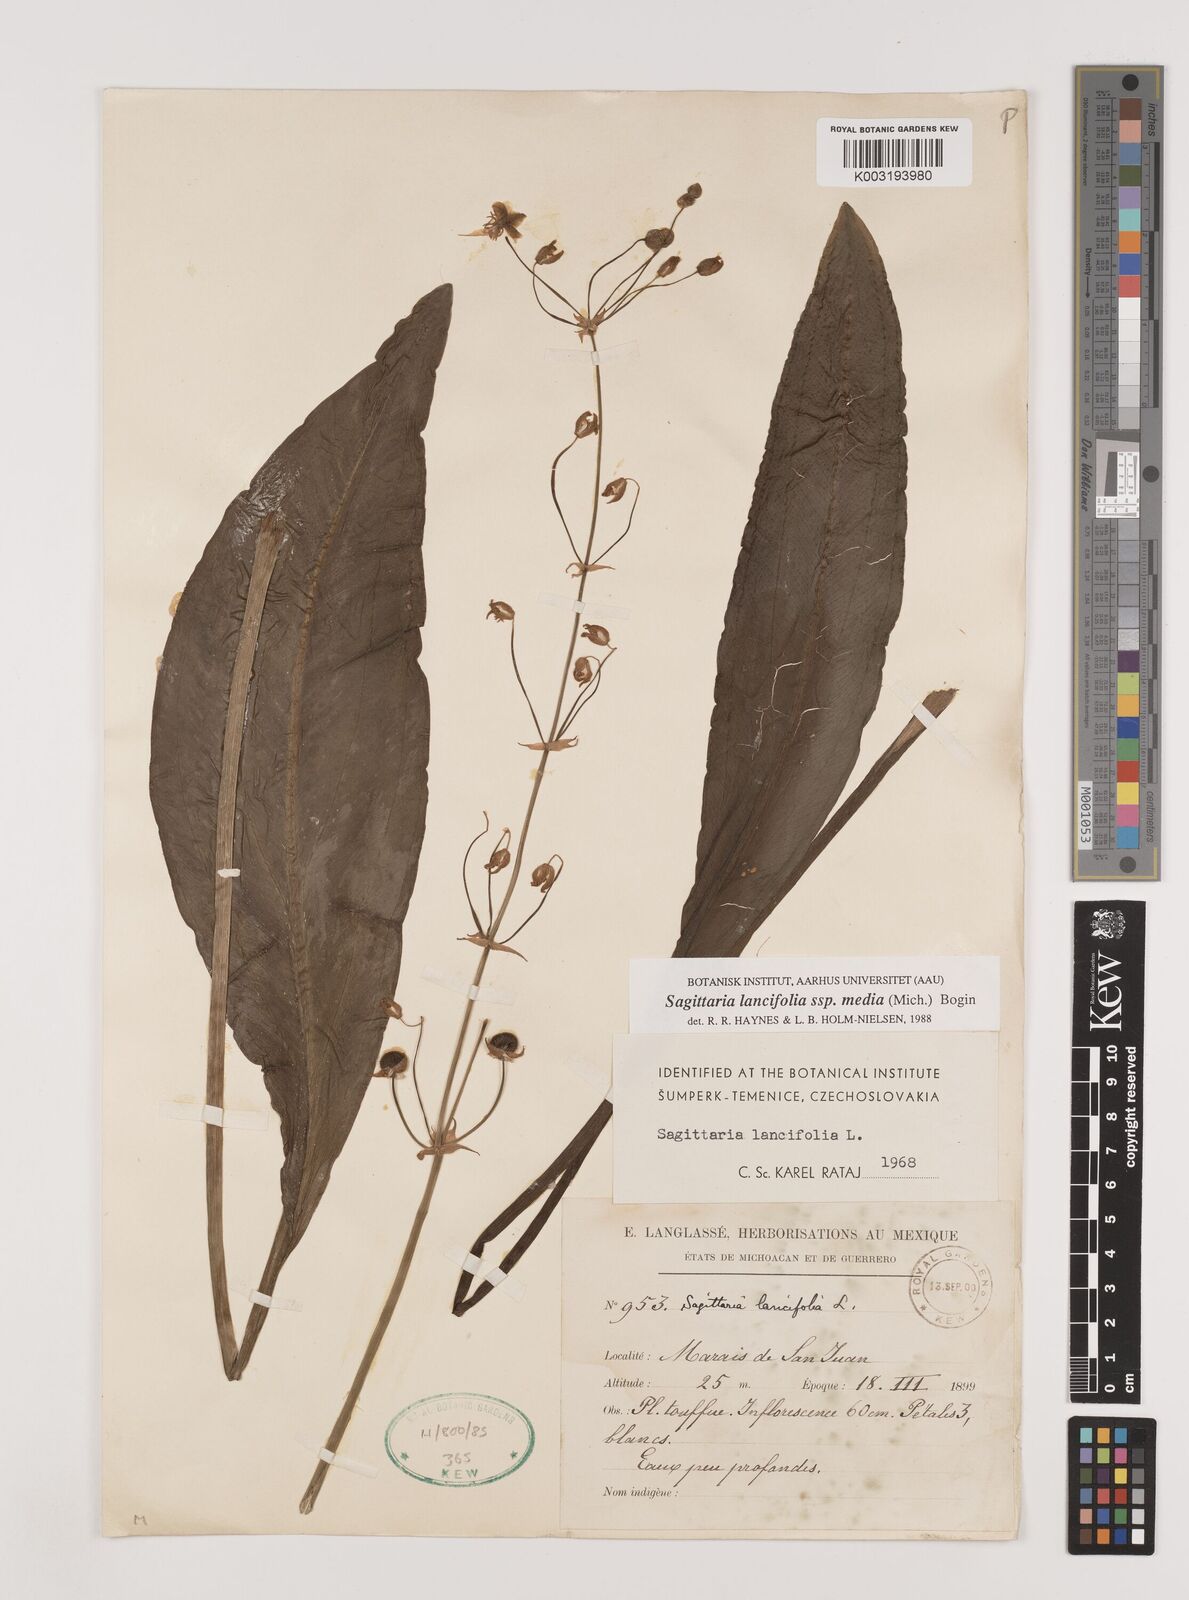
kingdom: Plantae
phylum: Tracheophyta
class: Liliopsida
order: Alismatales
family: Alismataceae
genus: Sagittaria
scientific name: Sagittaria lancifolia
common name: Lance-leaf arrowhead
